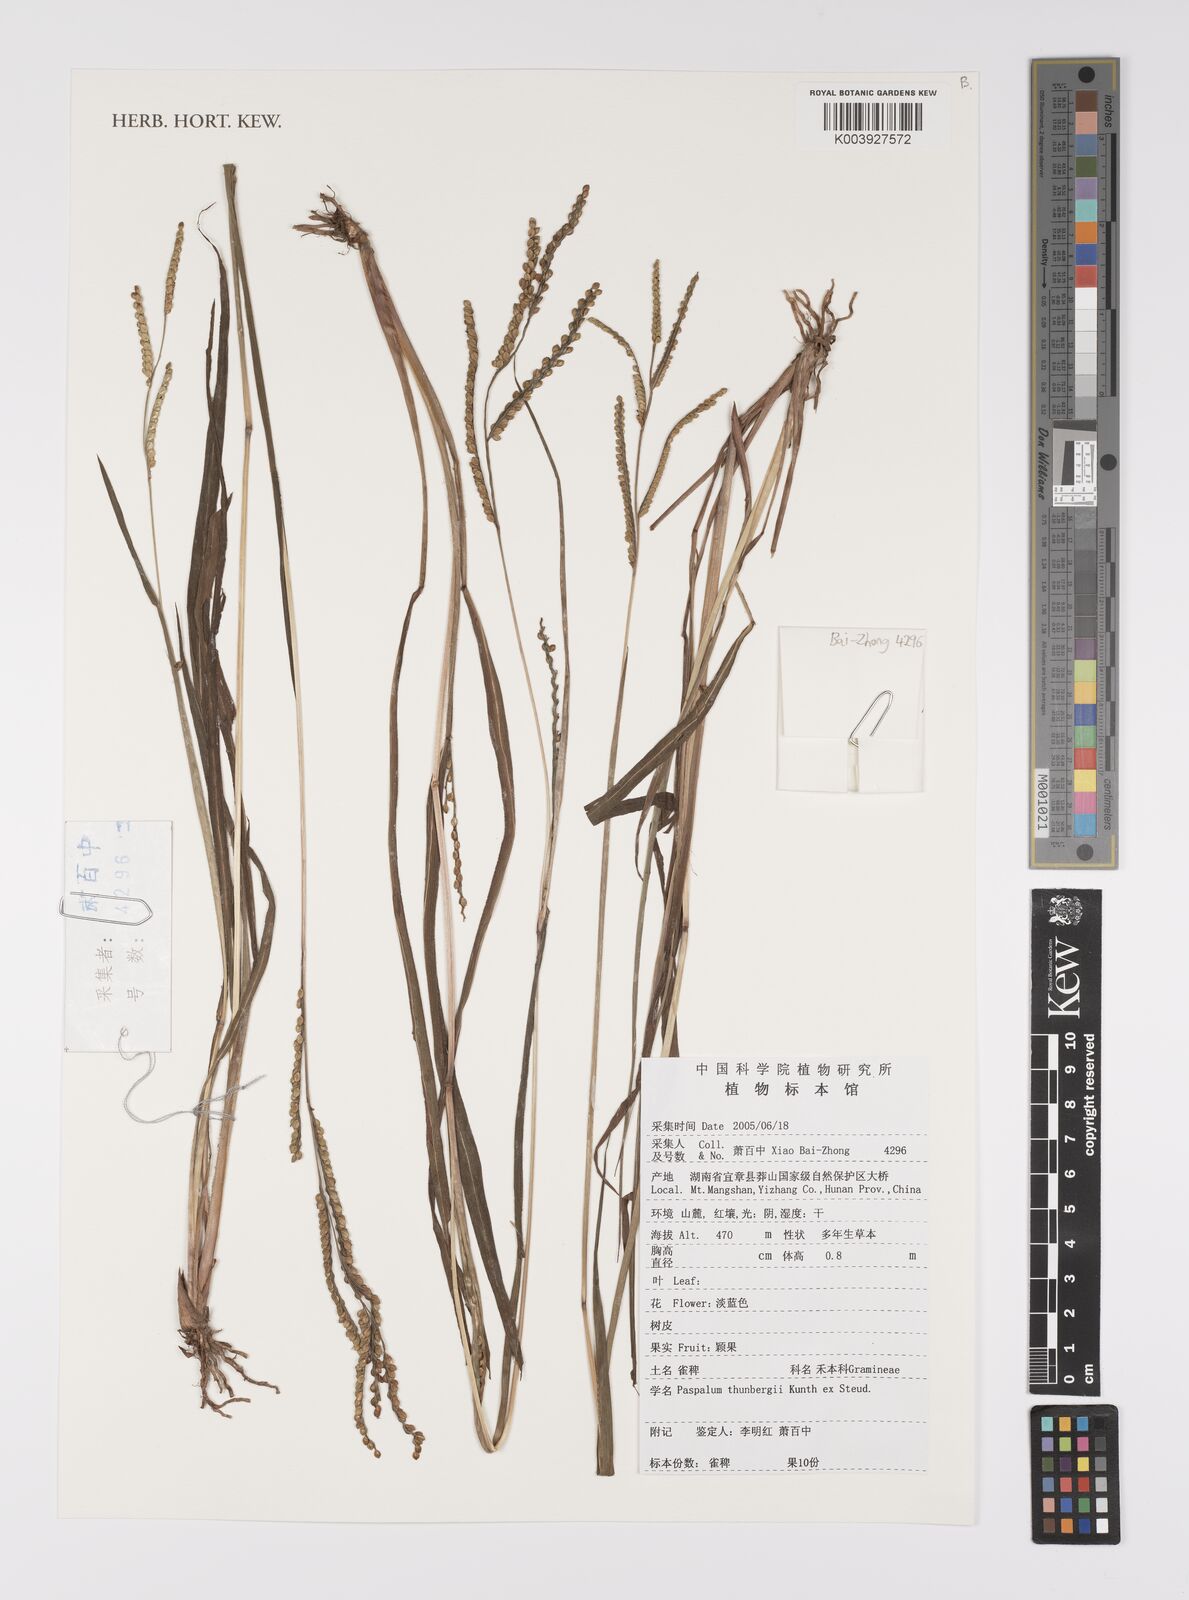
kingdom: Plantae
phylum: Tracheophyta
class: Liliopsida
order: Poales
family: Poaceae
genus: Paspalum
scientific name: Paspalum thunbergii
